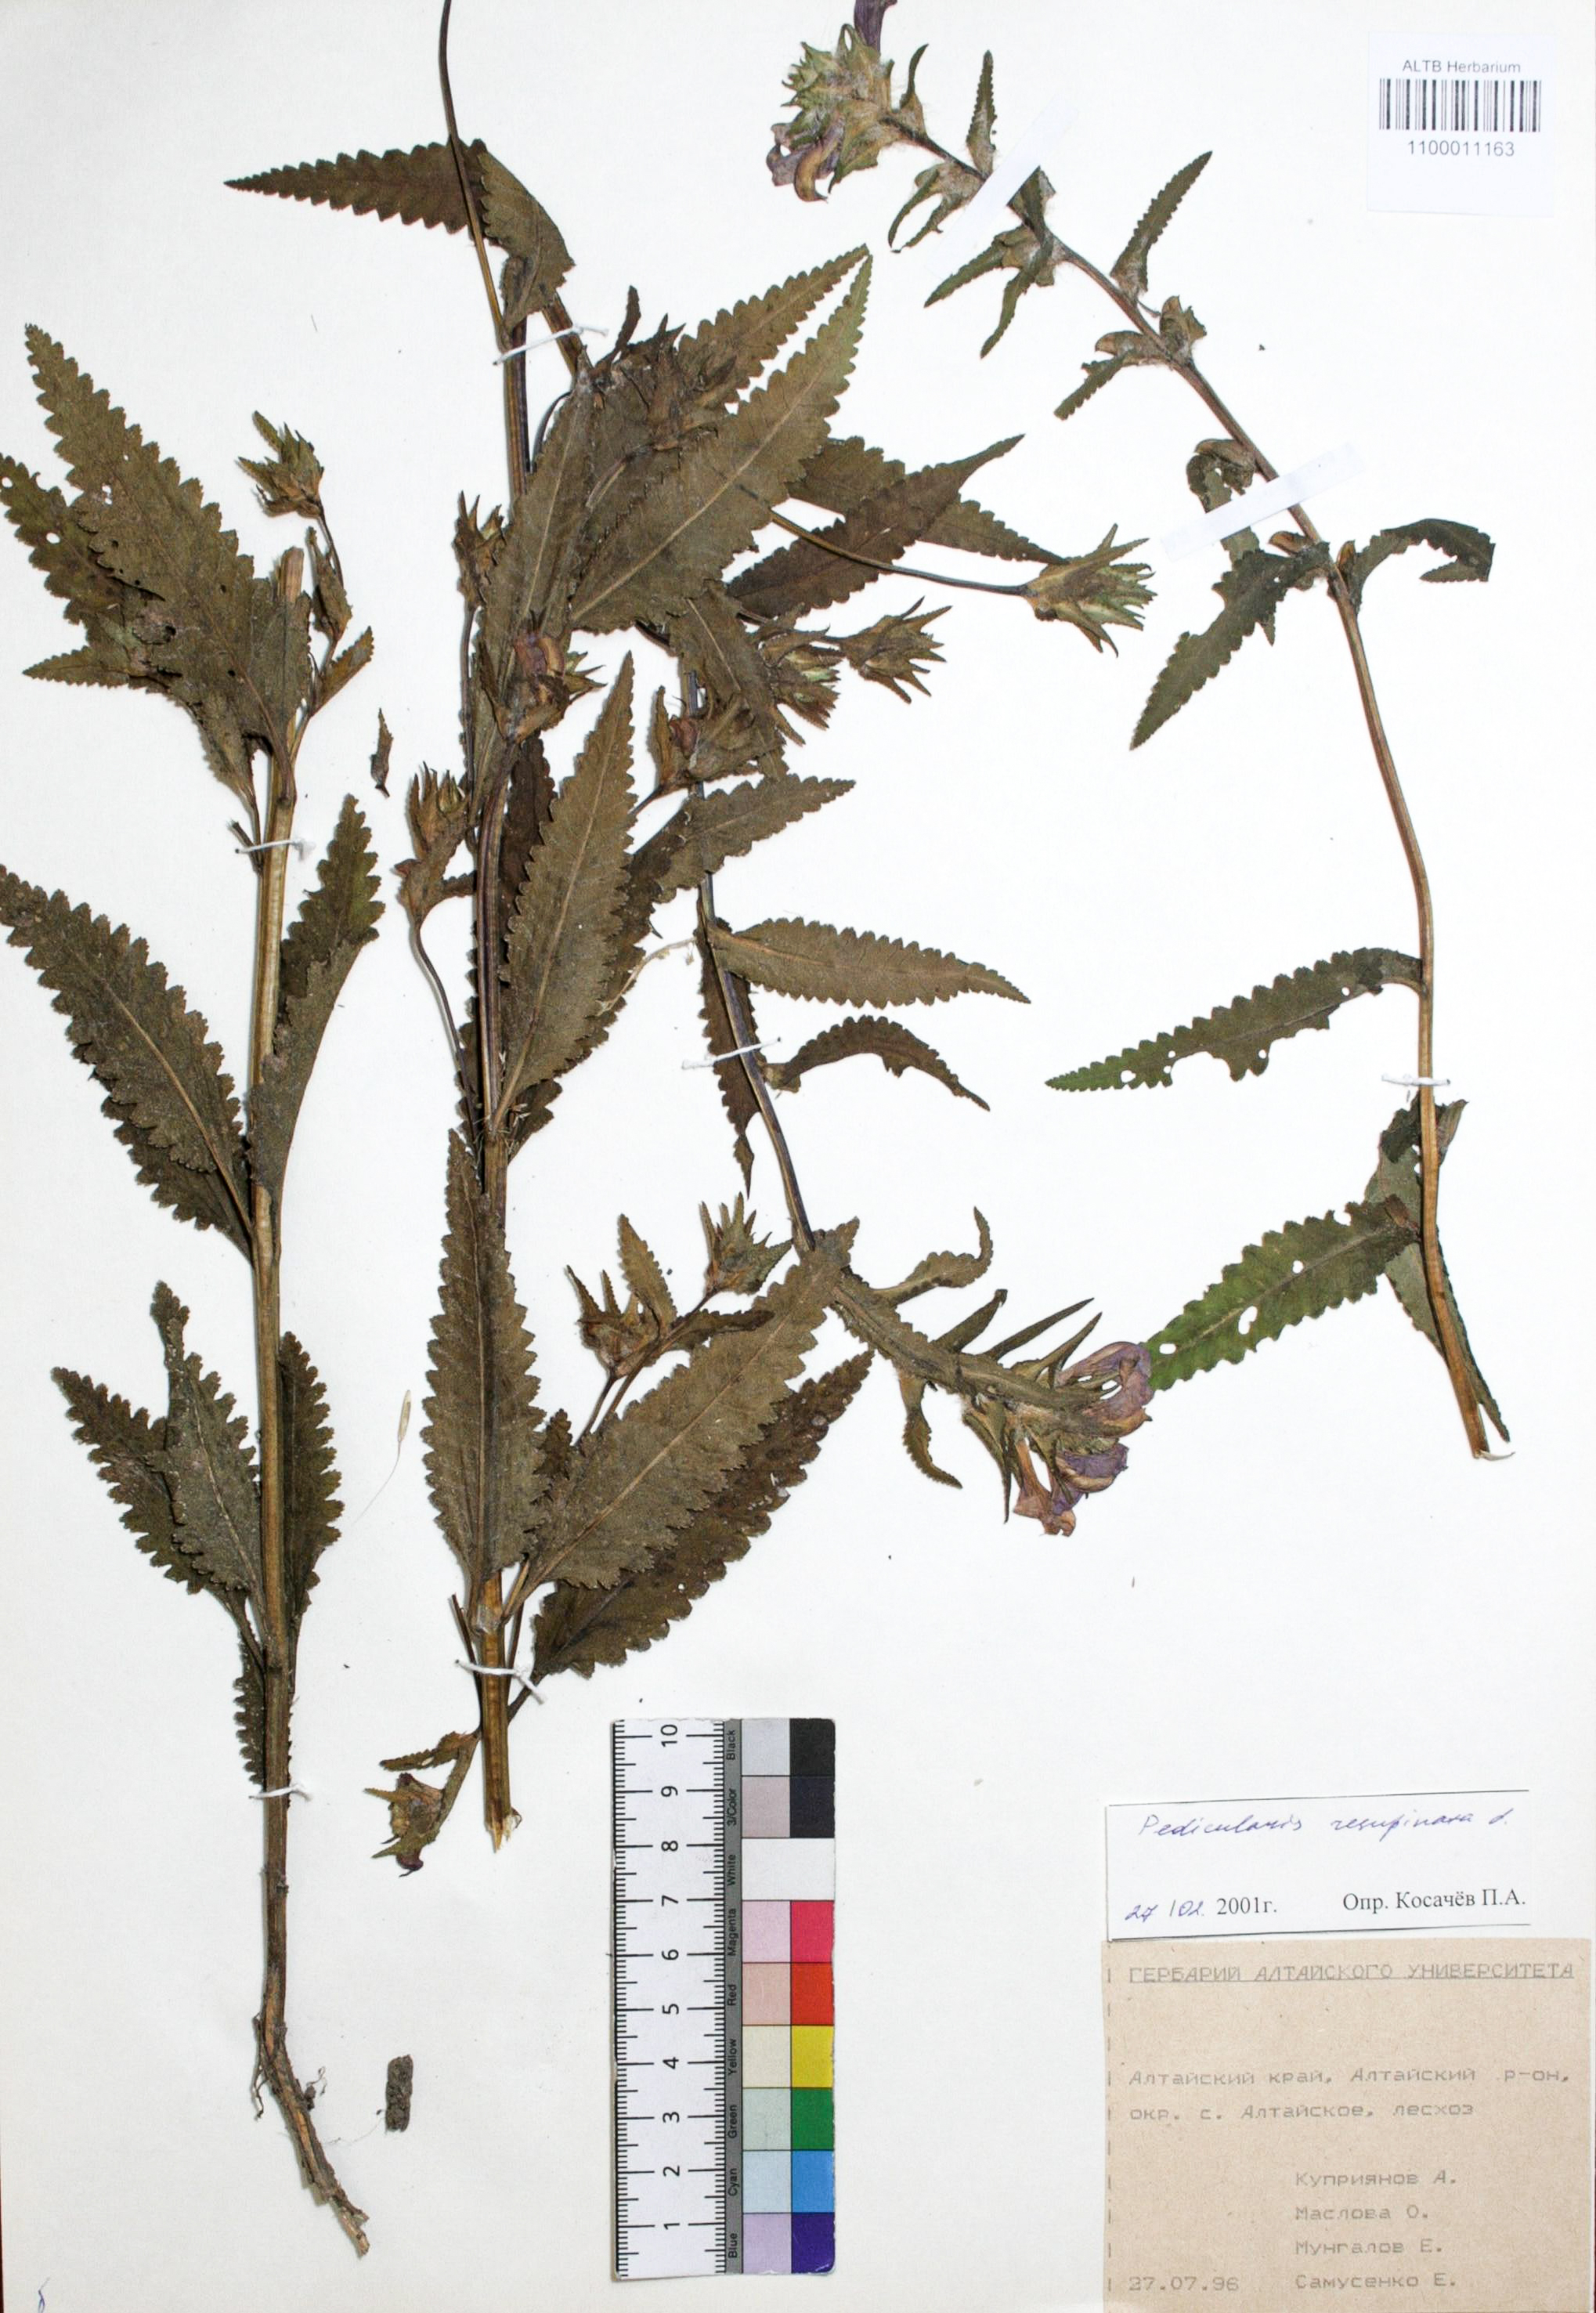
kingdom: Plantae
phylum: Tracheophyta
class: Magnoliopsida
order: Lamiales
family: Orobanchaceae
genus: Pedicularis
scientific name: Pedicularis resupinata
